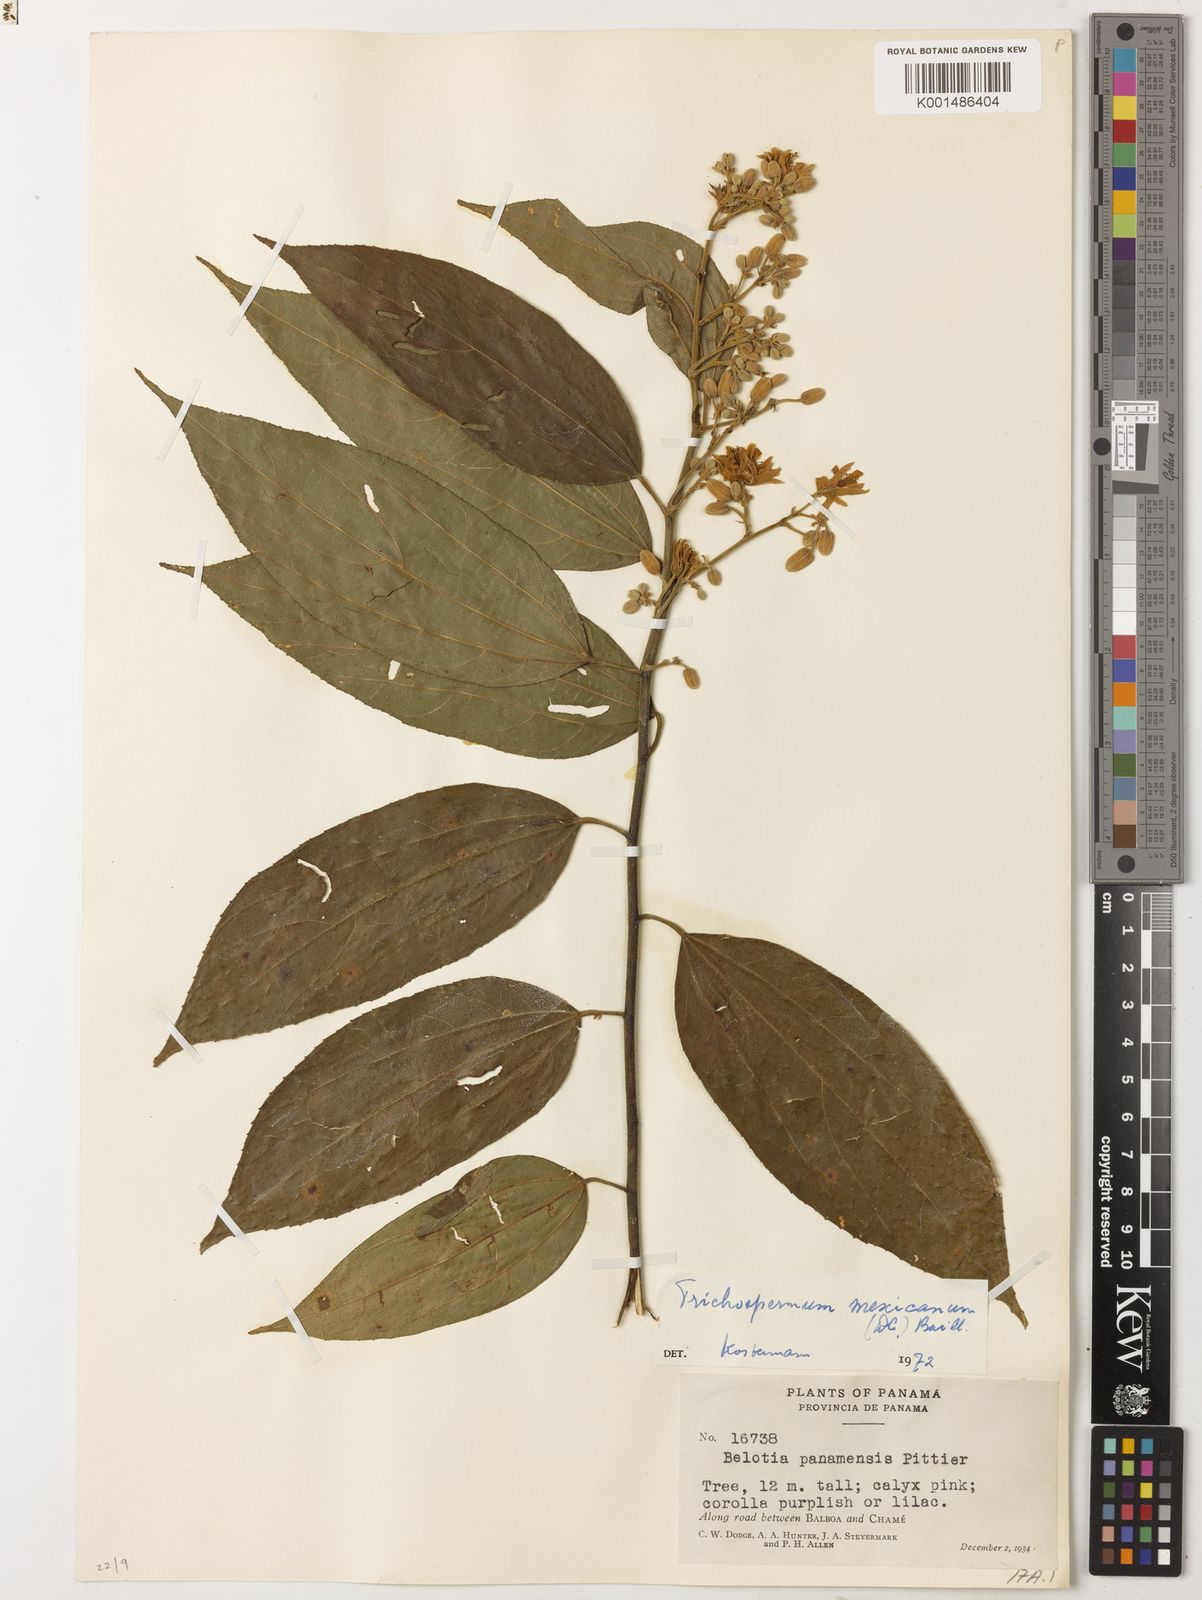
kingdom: Plantae
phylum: Tracheophyta
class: Magnoliopsida
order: Malvales
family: Malvaceae
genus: Trichospermum
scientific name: Trichospermum mexicanum
